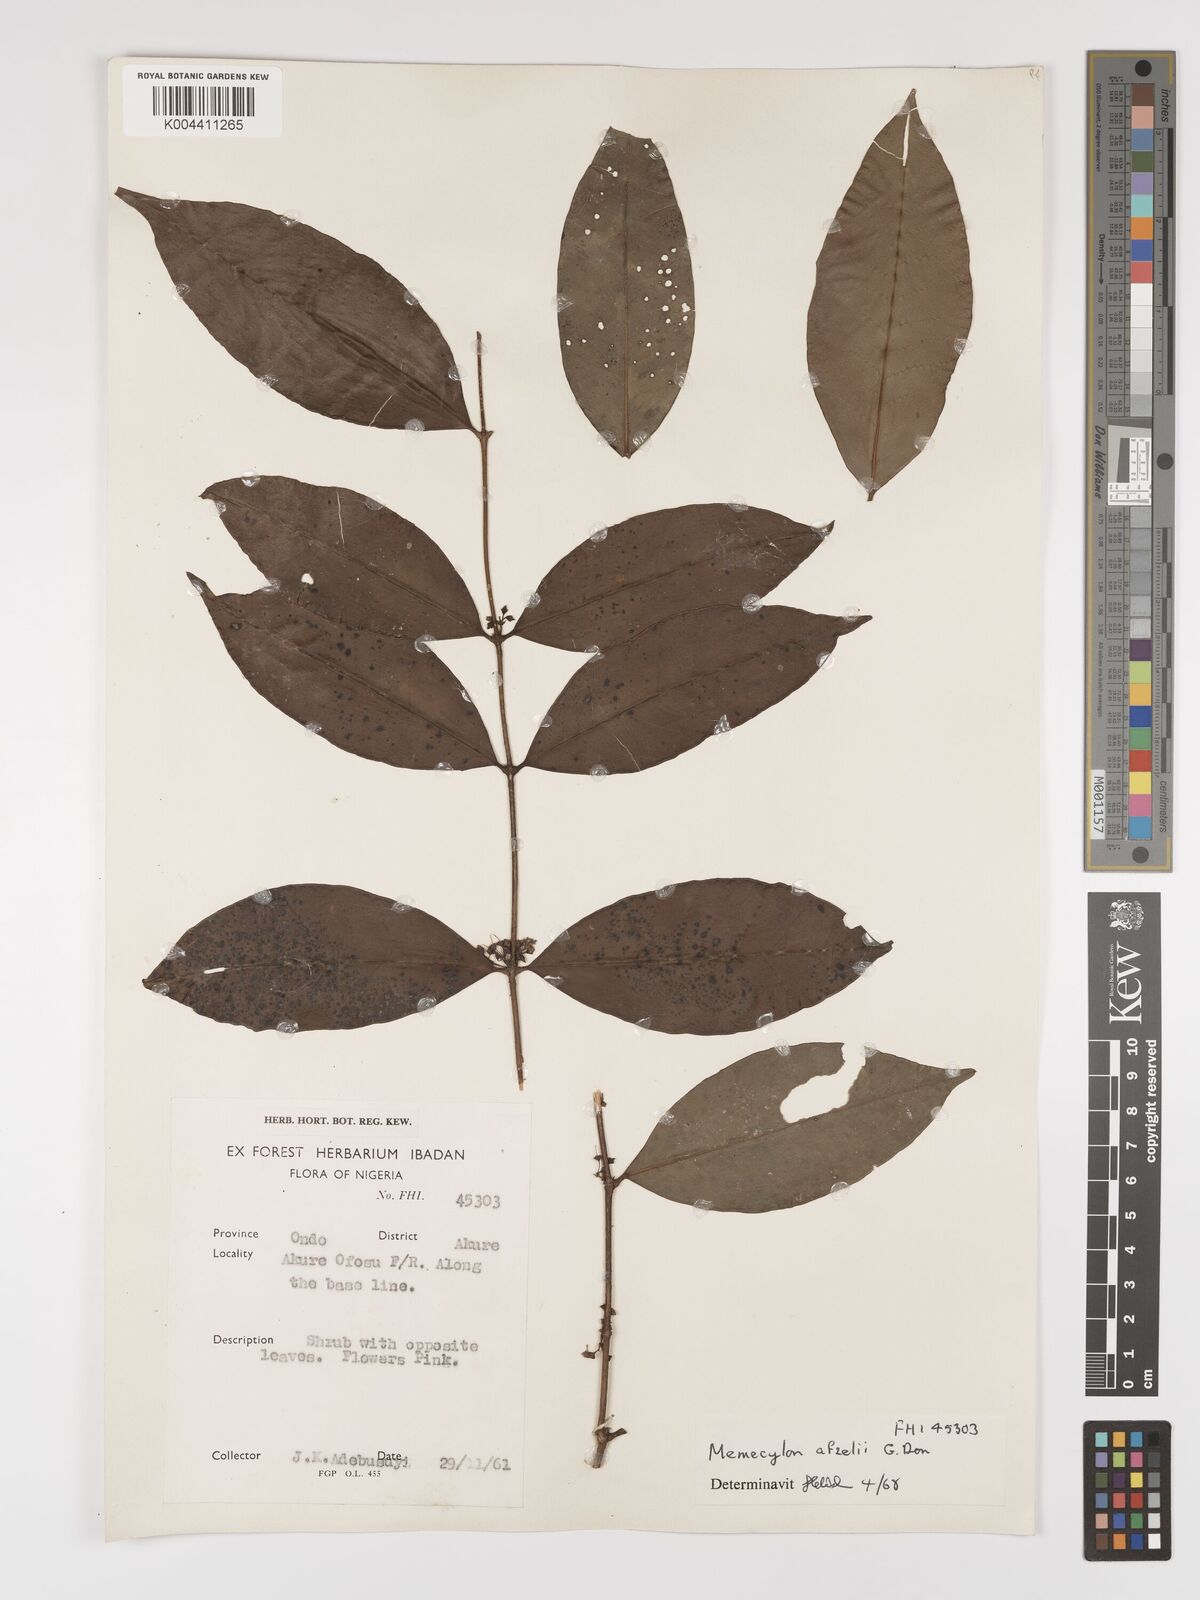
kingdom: Plantae
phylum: Tracheophyta
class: Magnoliopsida
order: Myrtales
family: Melastomataceae
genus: Memecylon
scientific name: Memecylon afzelii
